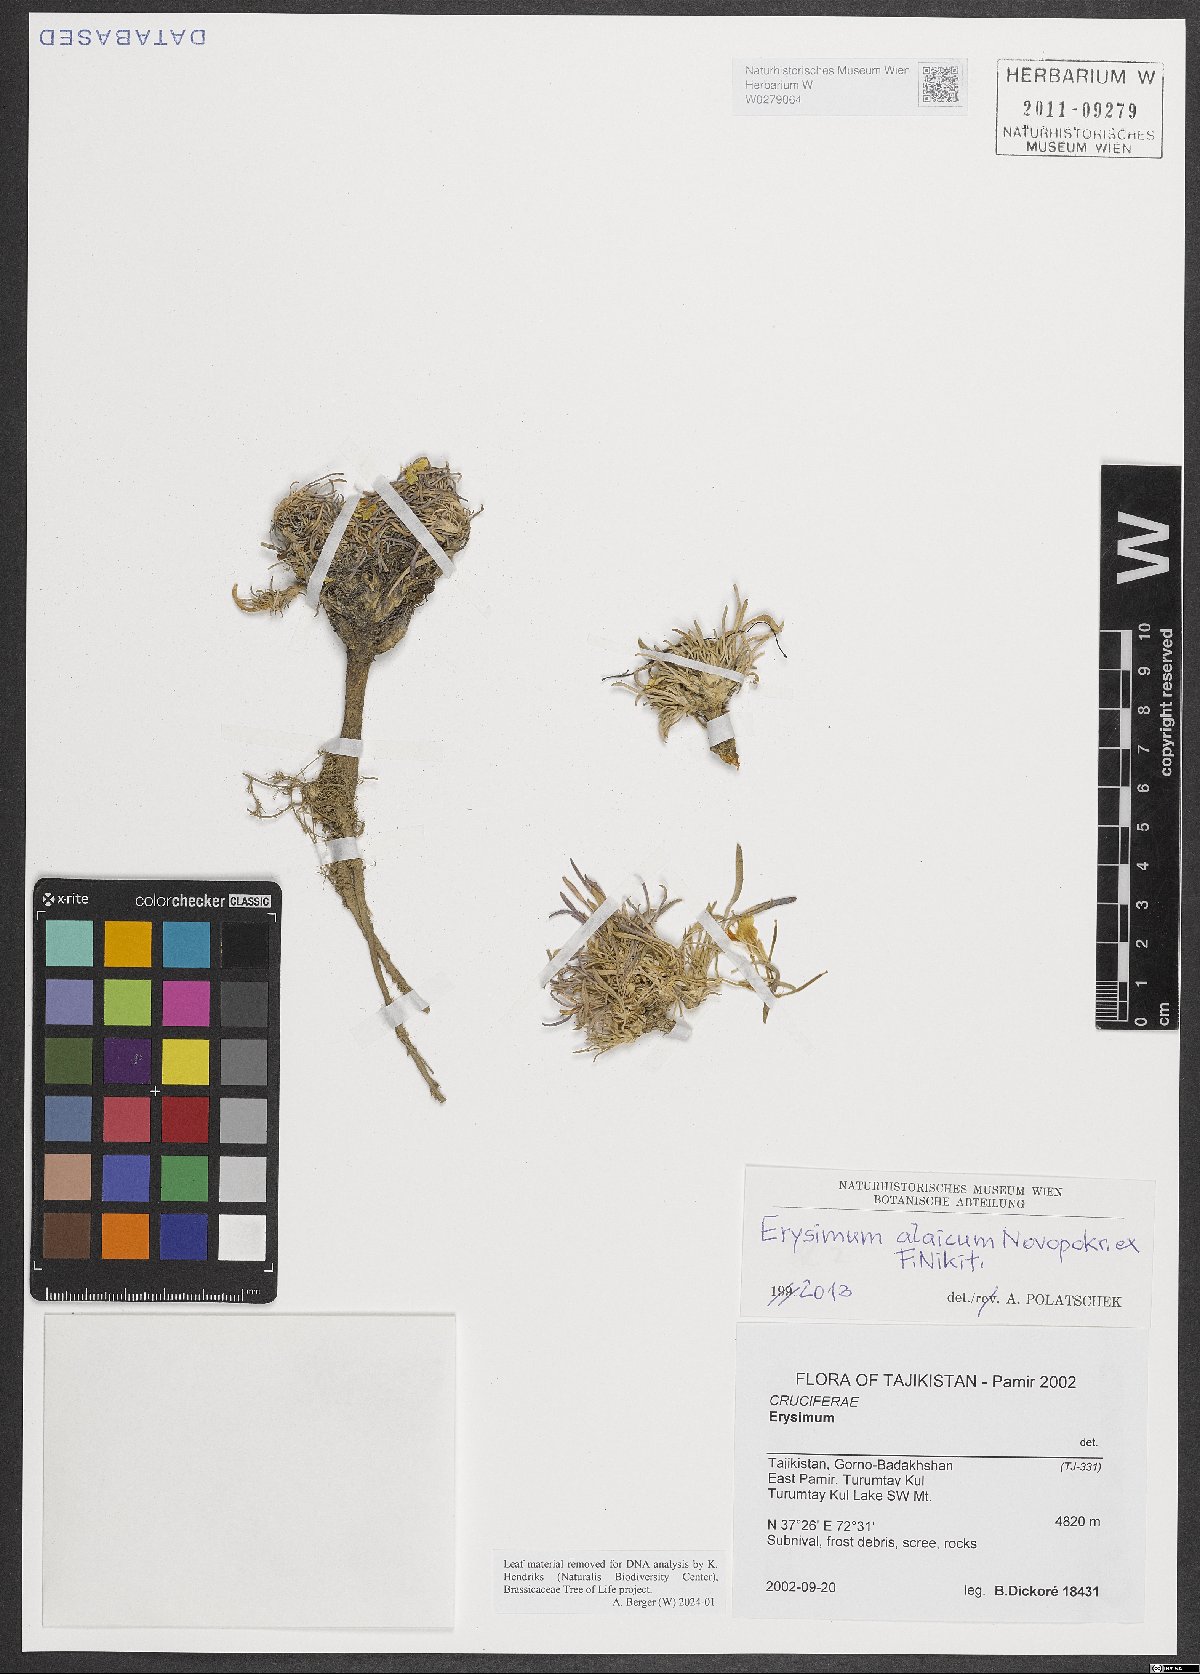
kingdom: Plantae
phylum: Tracheophyta
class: Magnoliopsida
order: Brassicales
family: Brassicaceae
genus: Erysimum
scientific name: Erysimum alaicum
